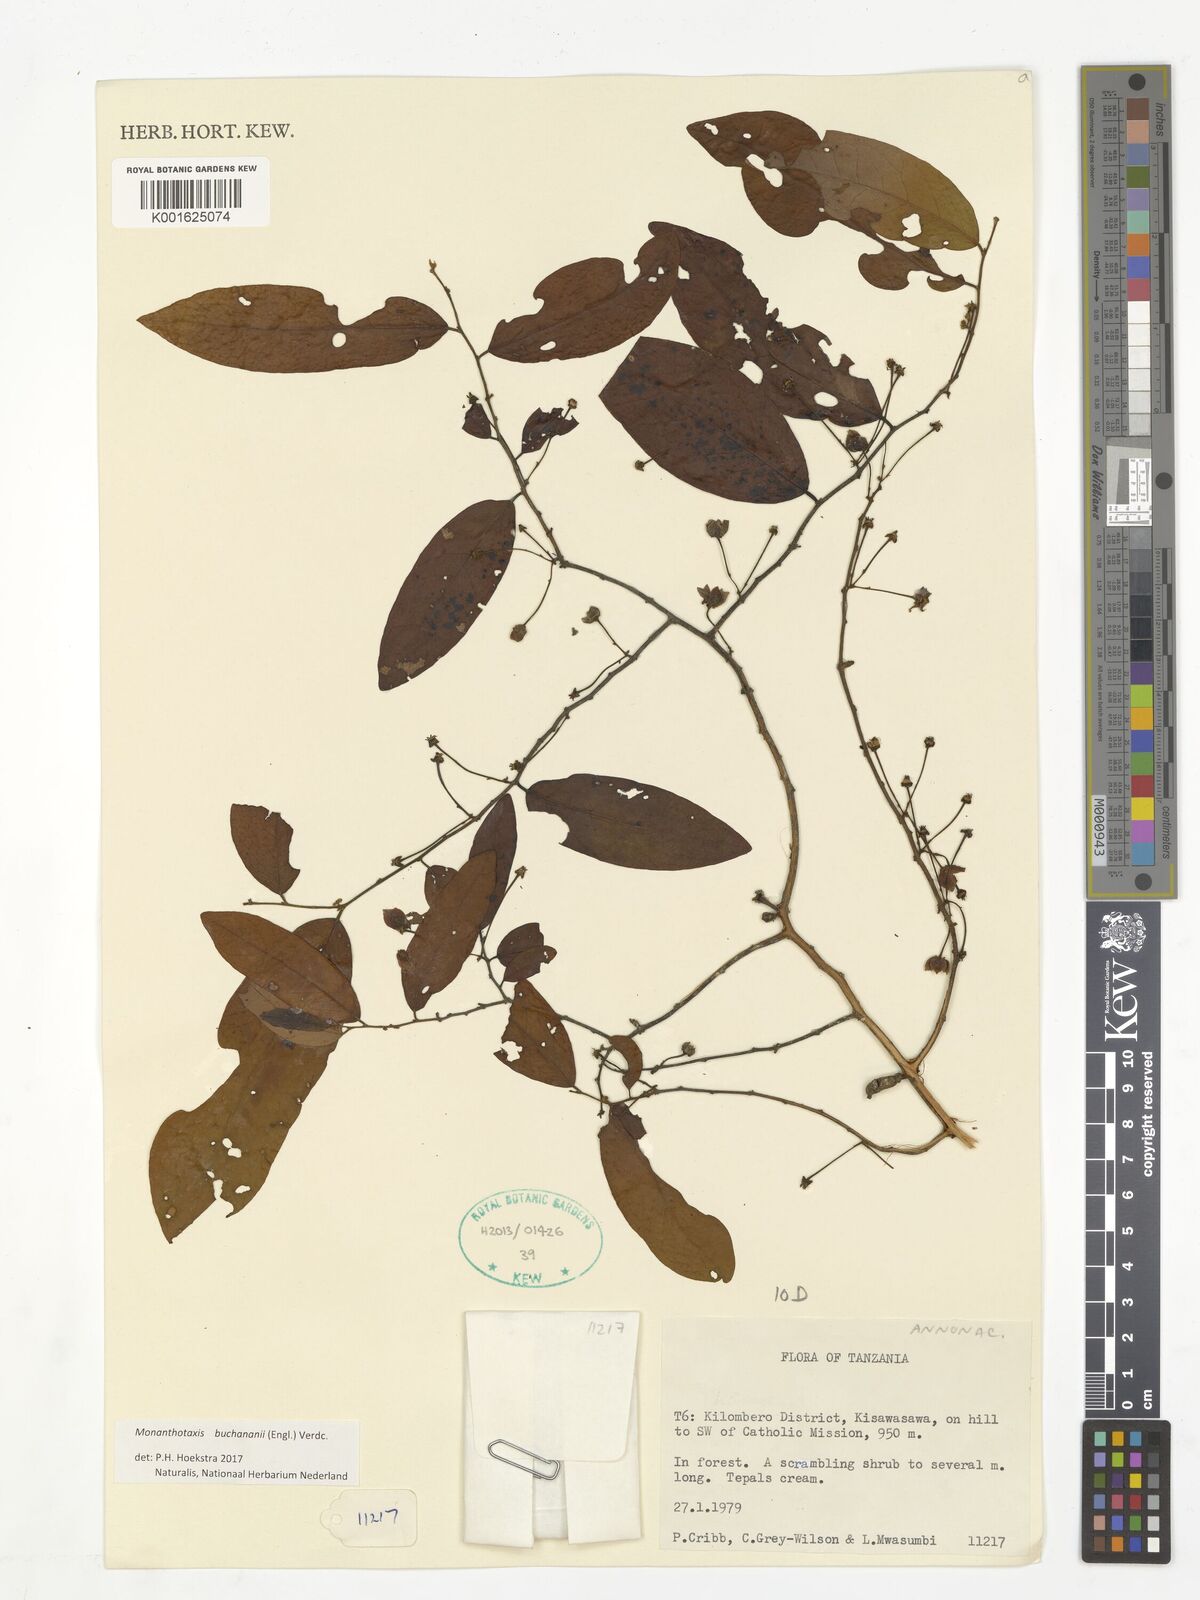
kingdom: Plantae
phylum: Tracheophyta
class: Magnoliopsida
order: Magnoliales
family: Annonaceae
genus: Monanthotaxis
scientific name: Monanthotaxis buchananii
